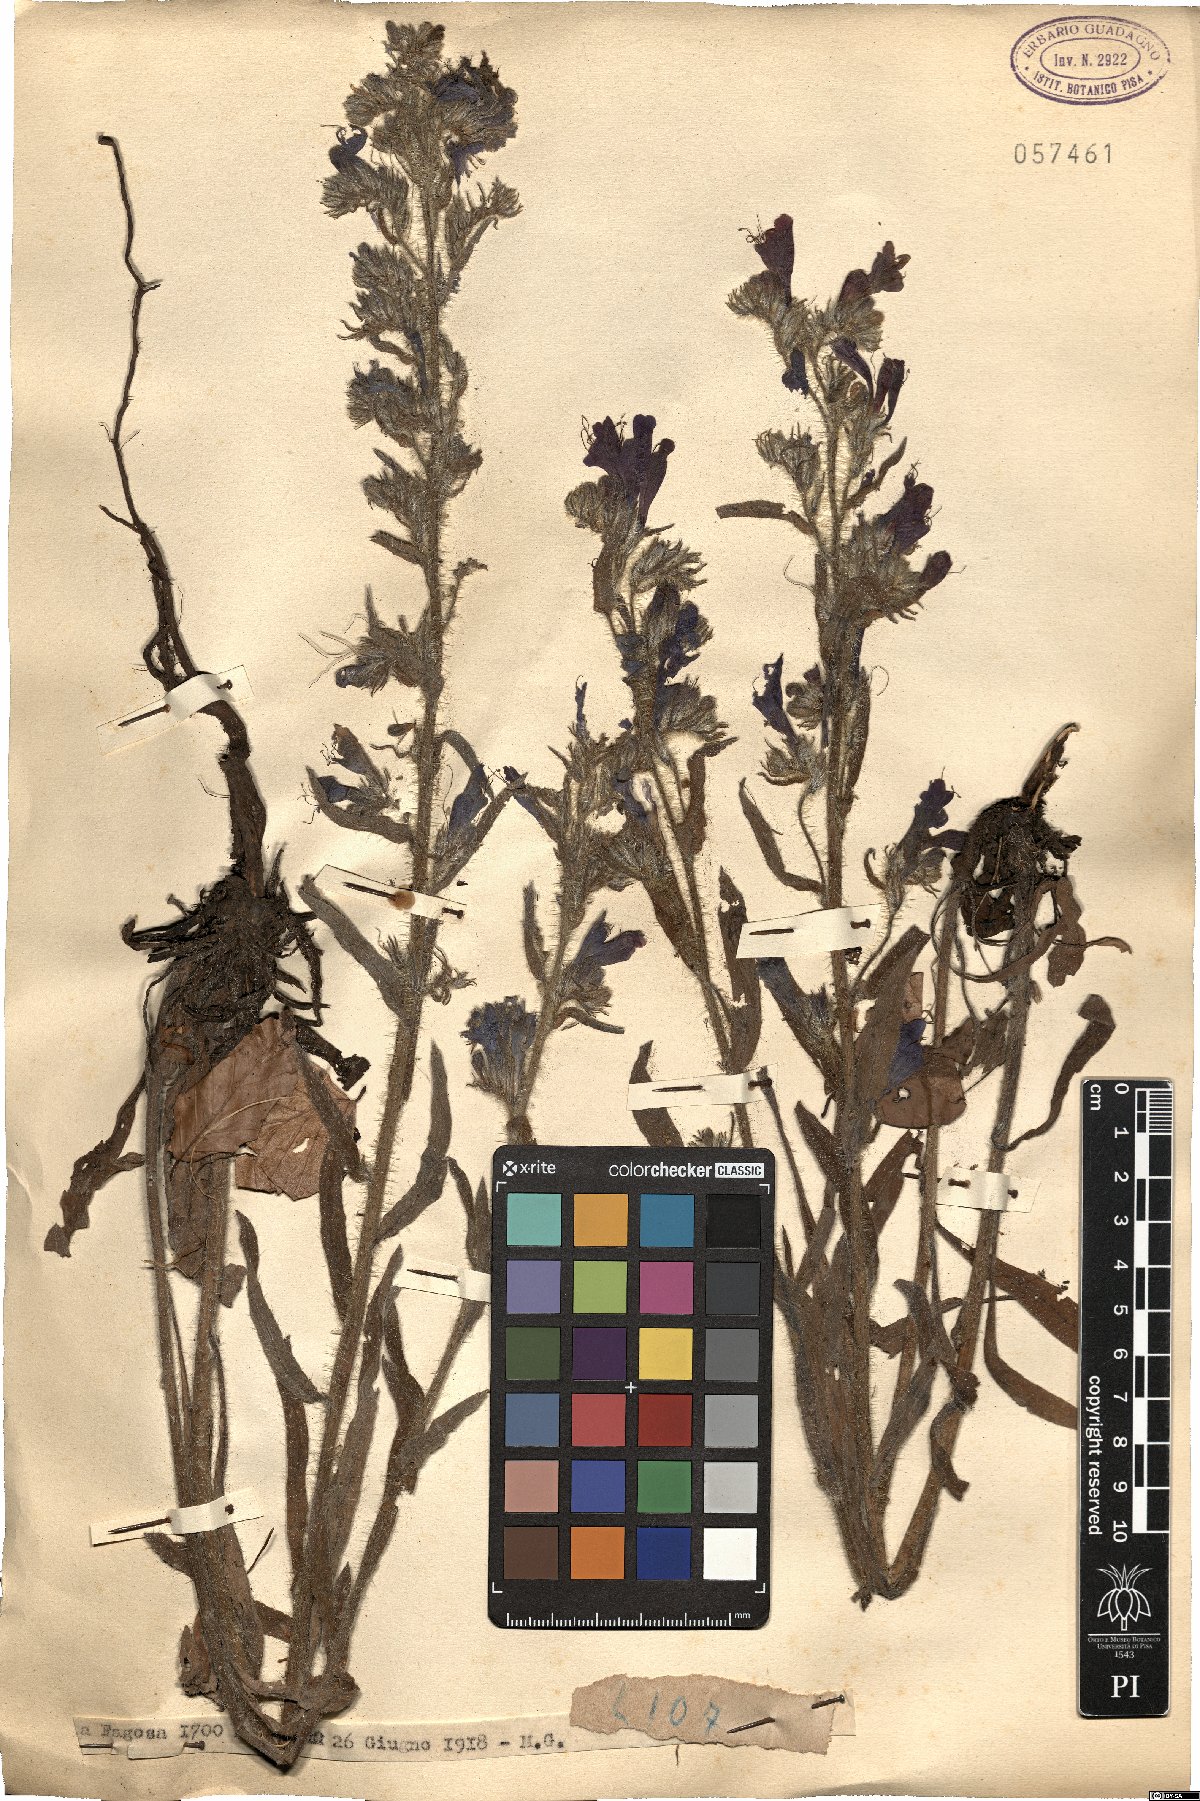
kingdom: Plantae
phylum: Tracheophyta
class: Magnoliopsida
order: Boraginales
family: Boraginaceae
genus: Echium
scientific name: Echium
